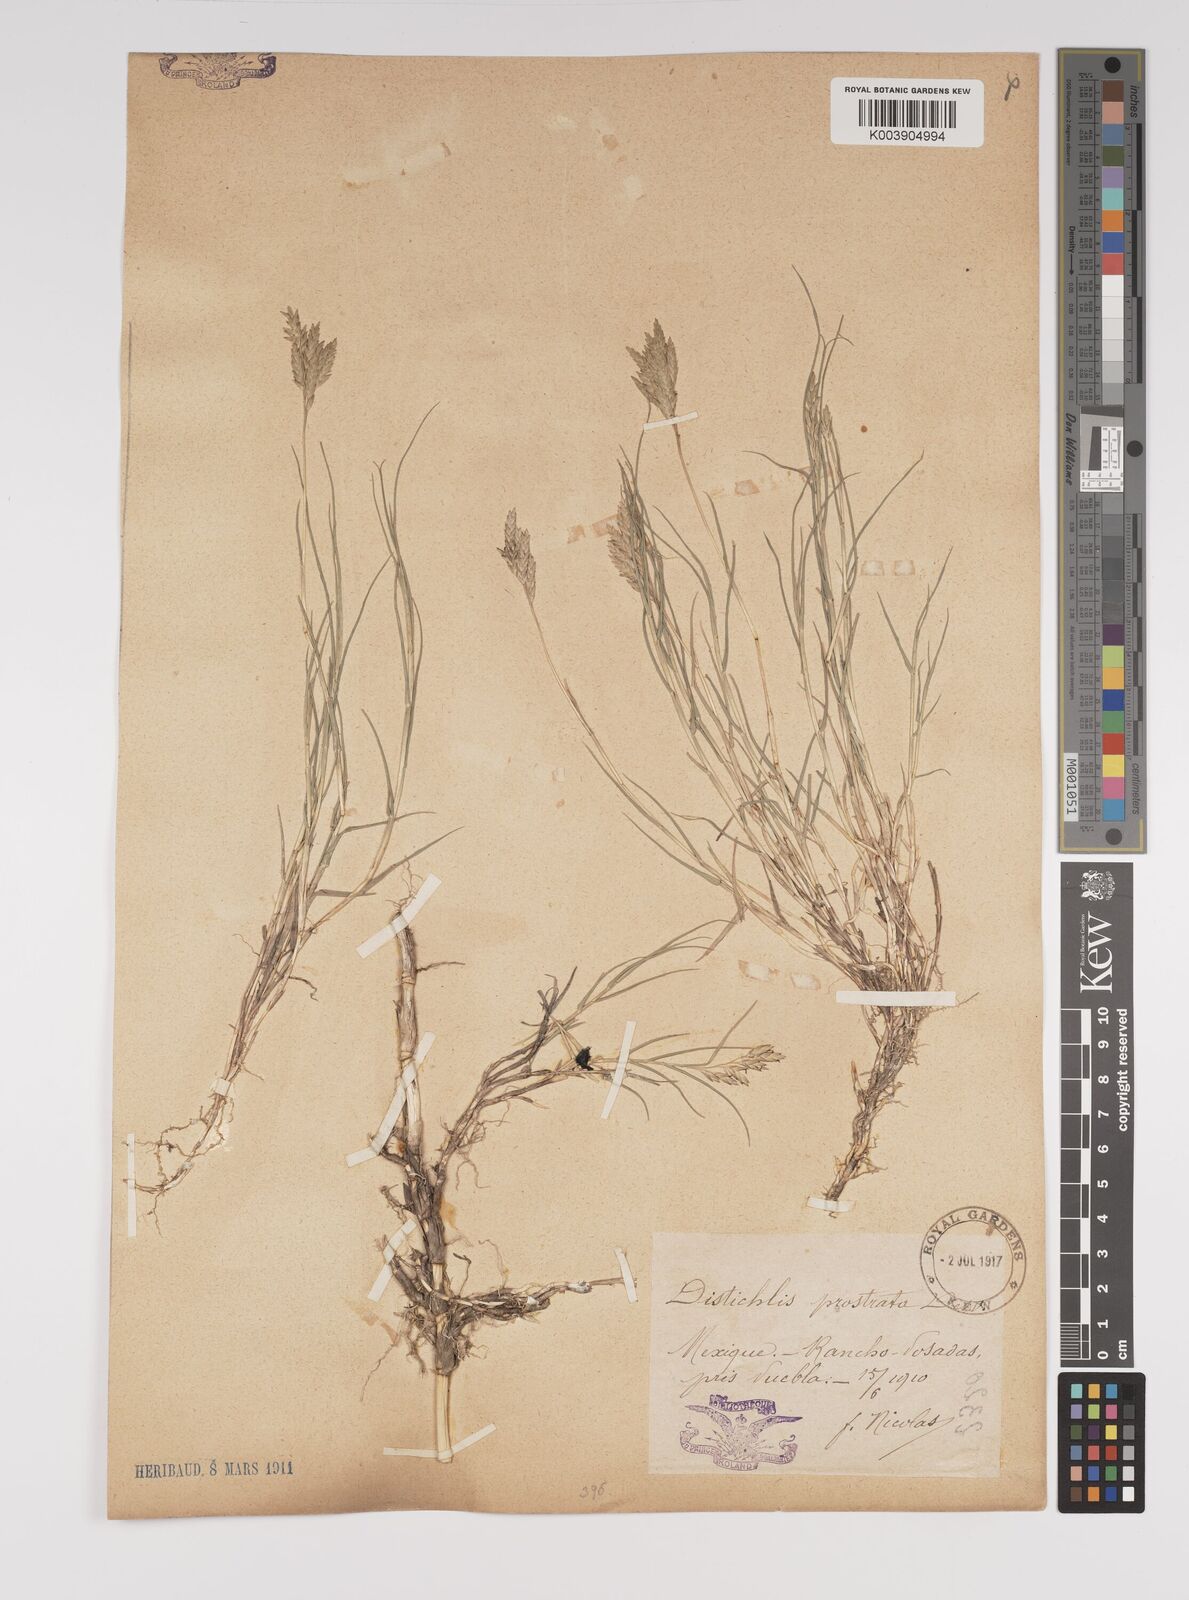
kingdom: Plantae
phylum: Tracheophyta
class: Liliopsida
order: Poales
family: Poaceae
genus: Distichlis
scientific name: Distichlis spicata
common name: Saltgrass
